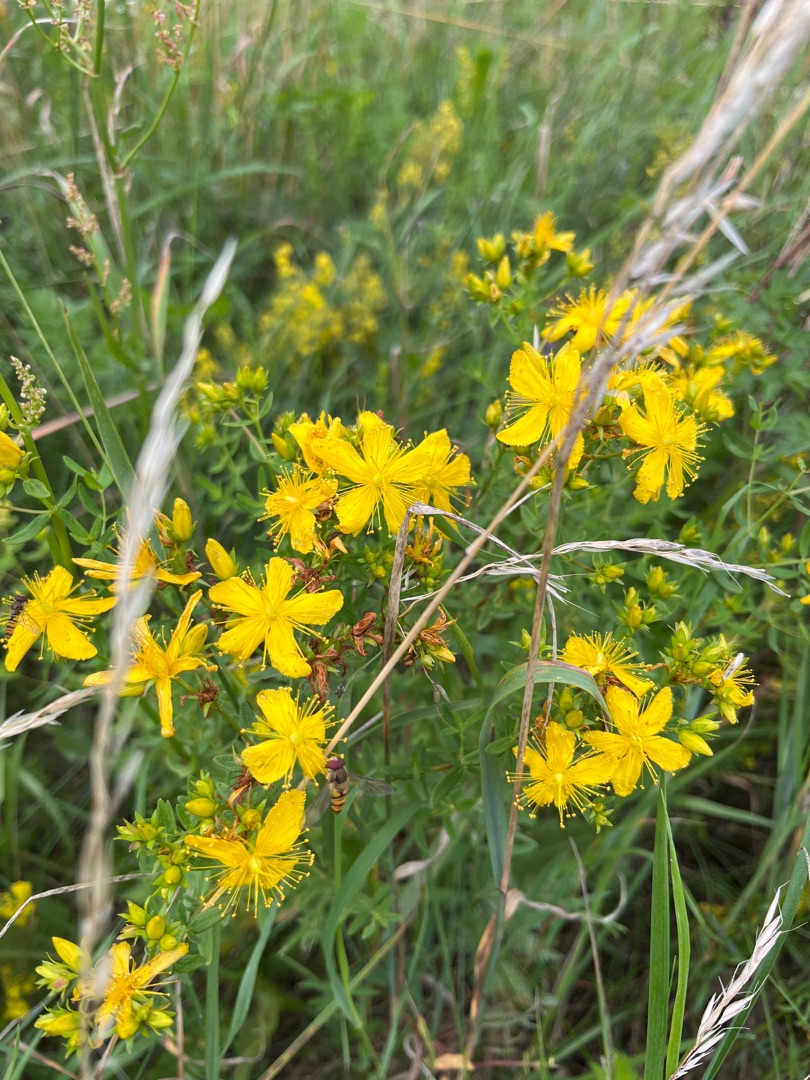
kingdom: Plantae
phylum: Tracheophyta
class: Magnoliopsida
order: Malpighiales
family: Hypericaceae
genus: Hypericum
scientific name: Hypericum perforatum
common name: Prikbladet perikon
